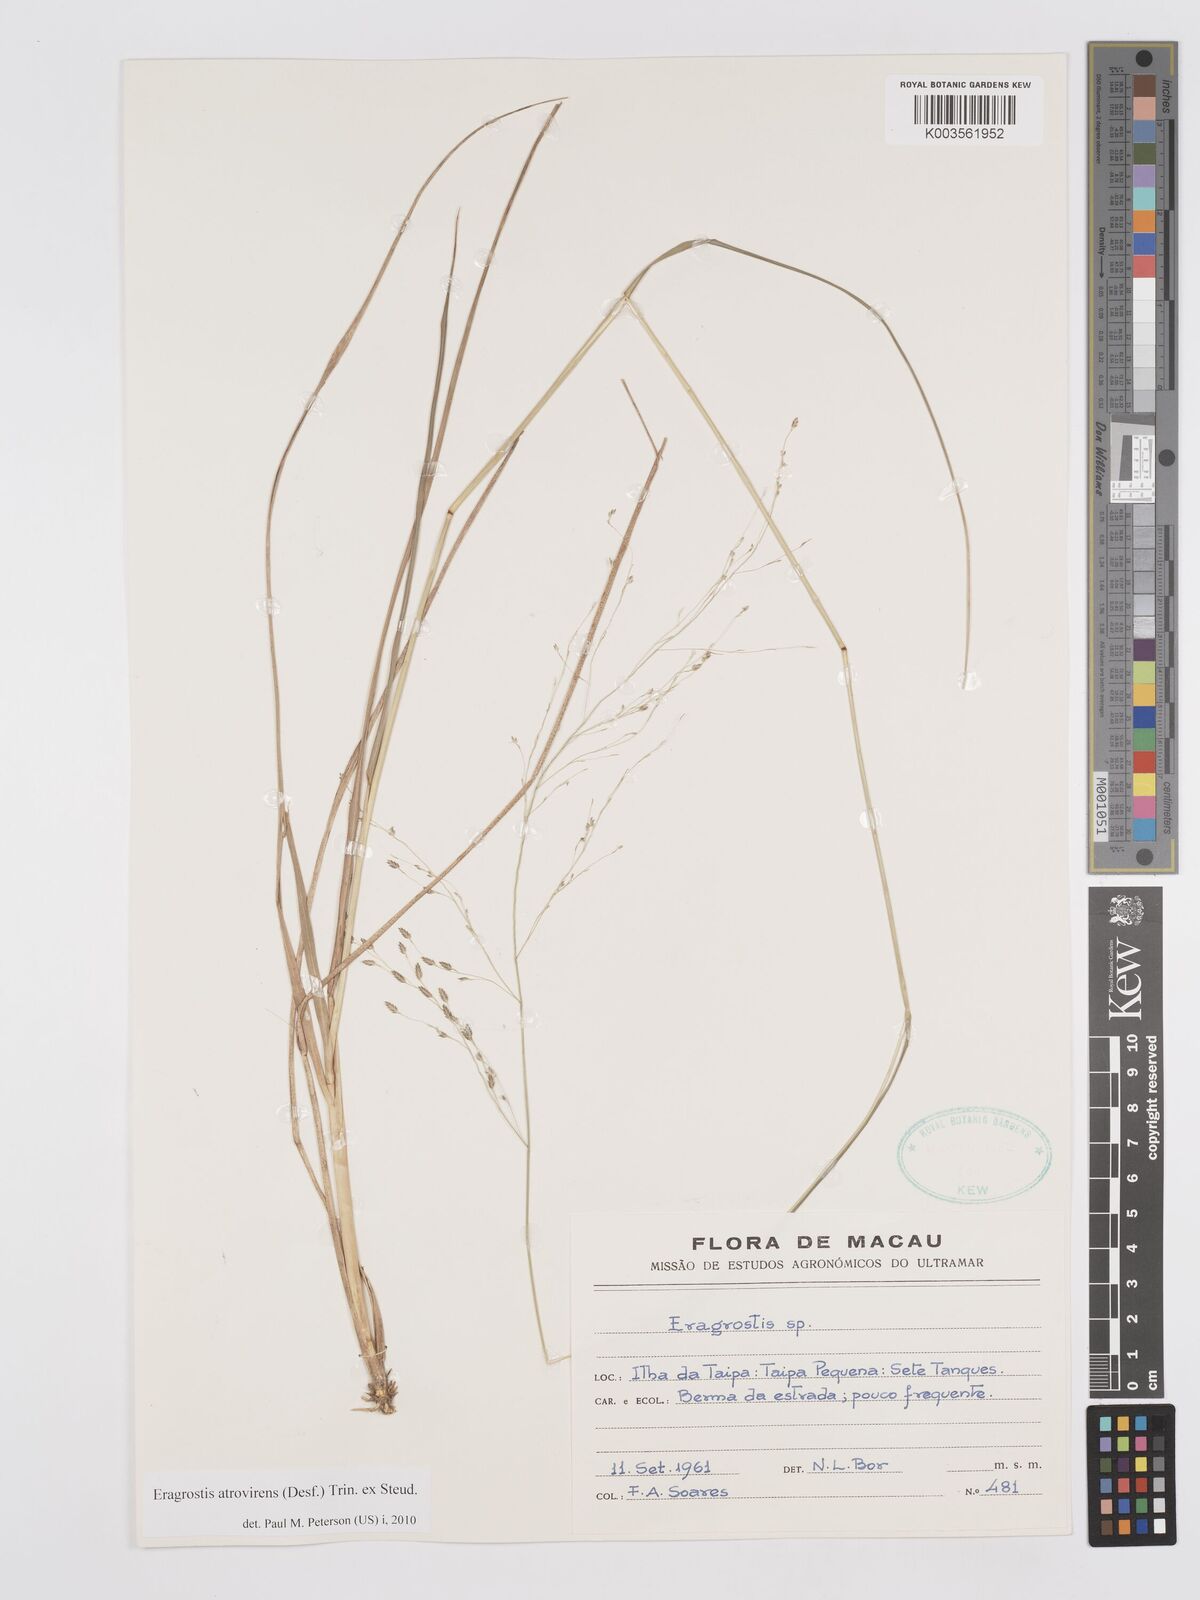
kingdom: Plantae
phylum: Tracheophyta
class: Liliopsida
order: Poales
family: Poaceae
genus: Eragrostis
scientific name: Eragrostis atrovirens
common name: Thalia lovegrass
